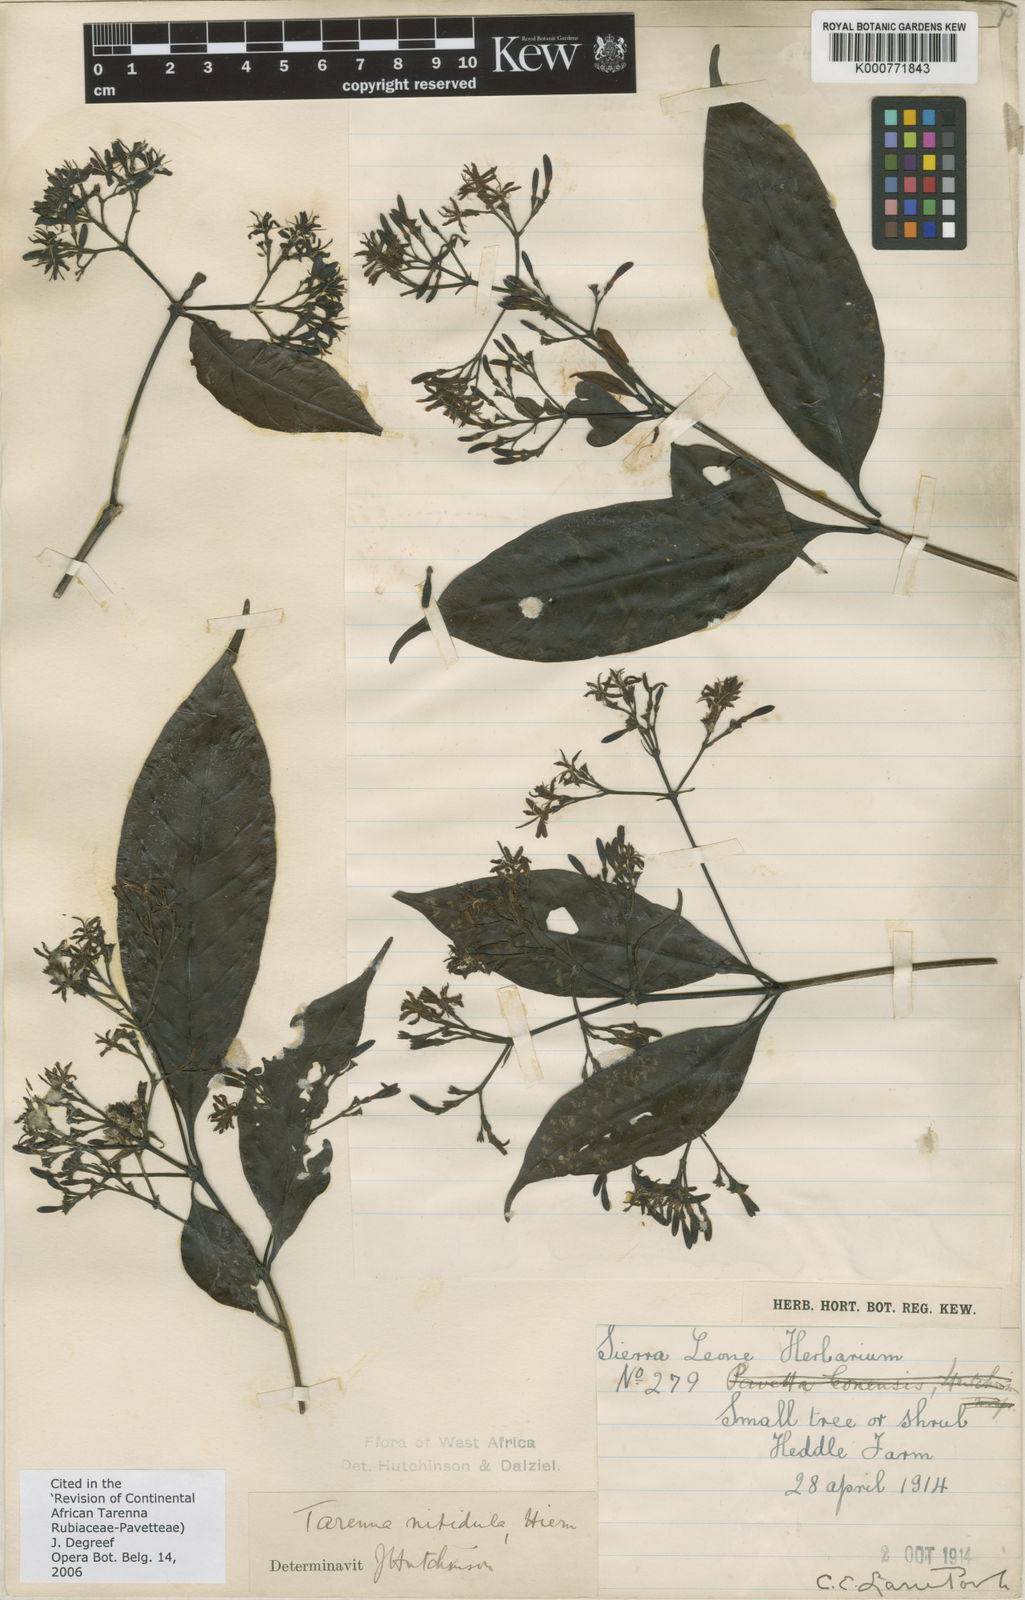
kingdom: Plantae
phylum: Tracheophyta
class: Magnoliopsida
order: Gentianales
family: Rubiaceae
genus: Tarenna
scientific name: Tarenna nitidula
